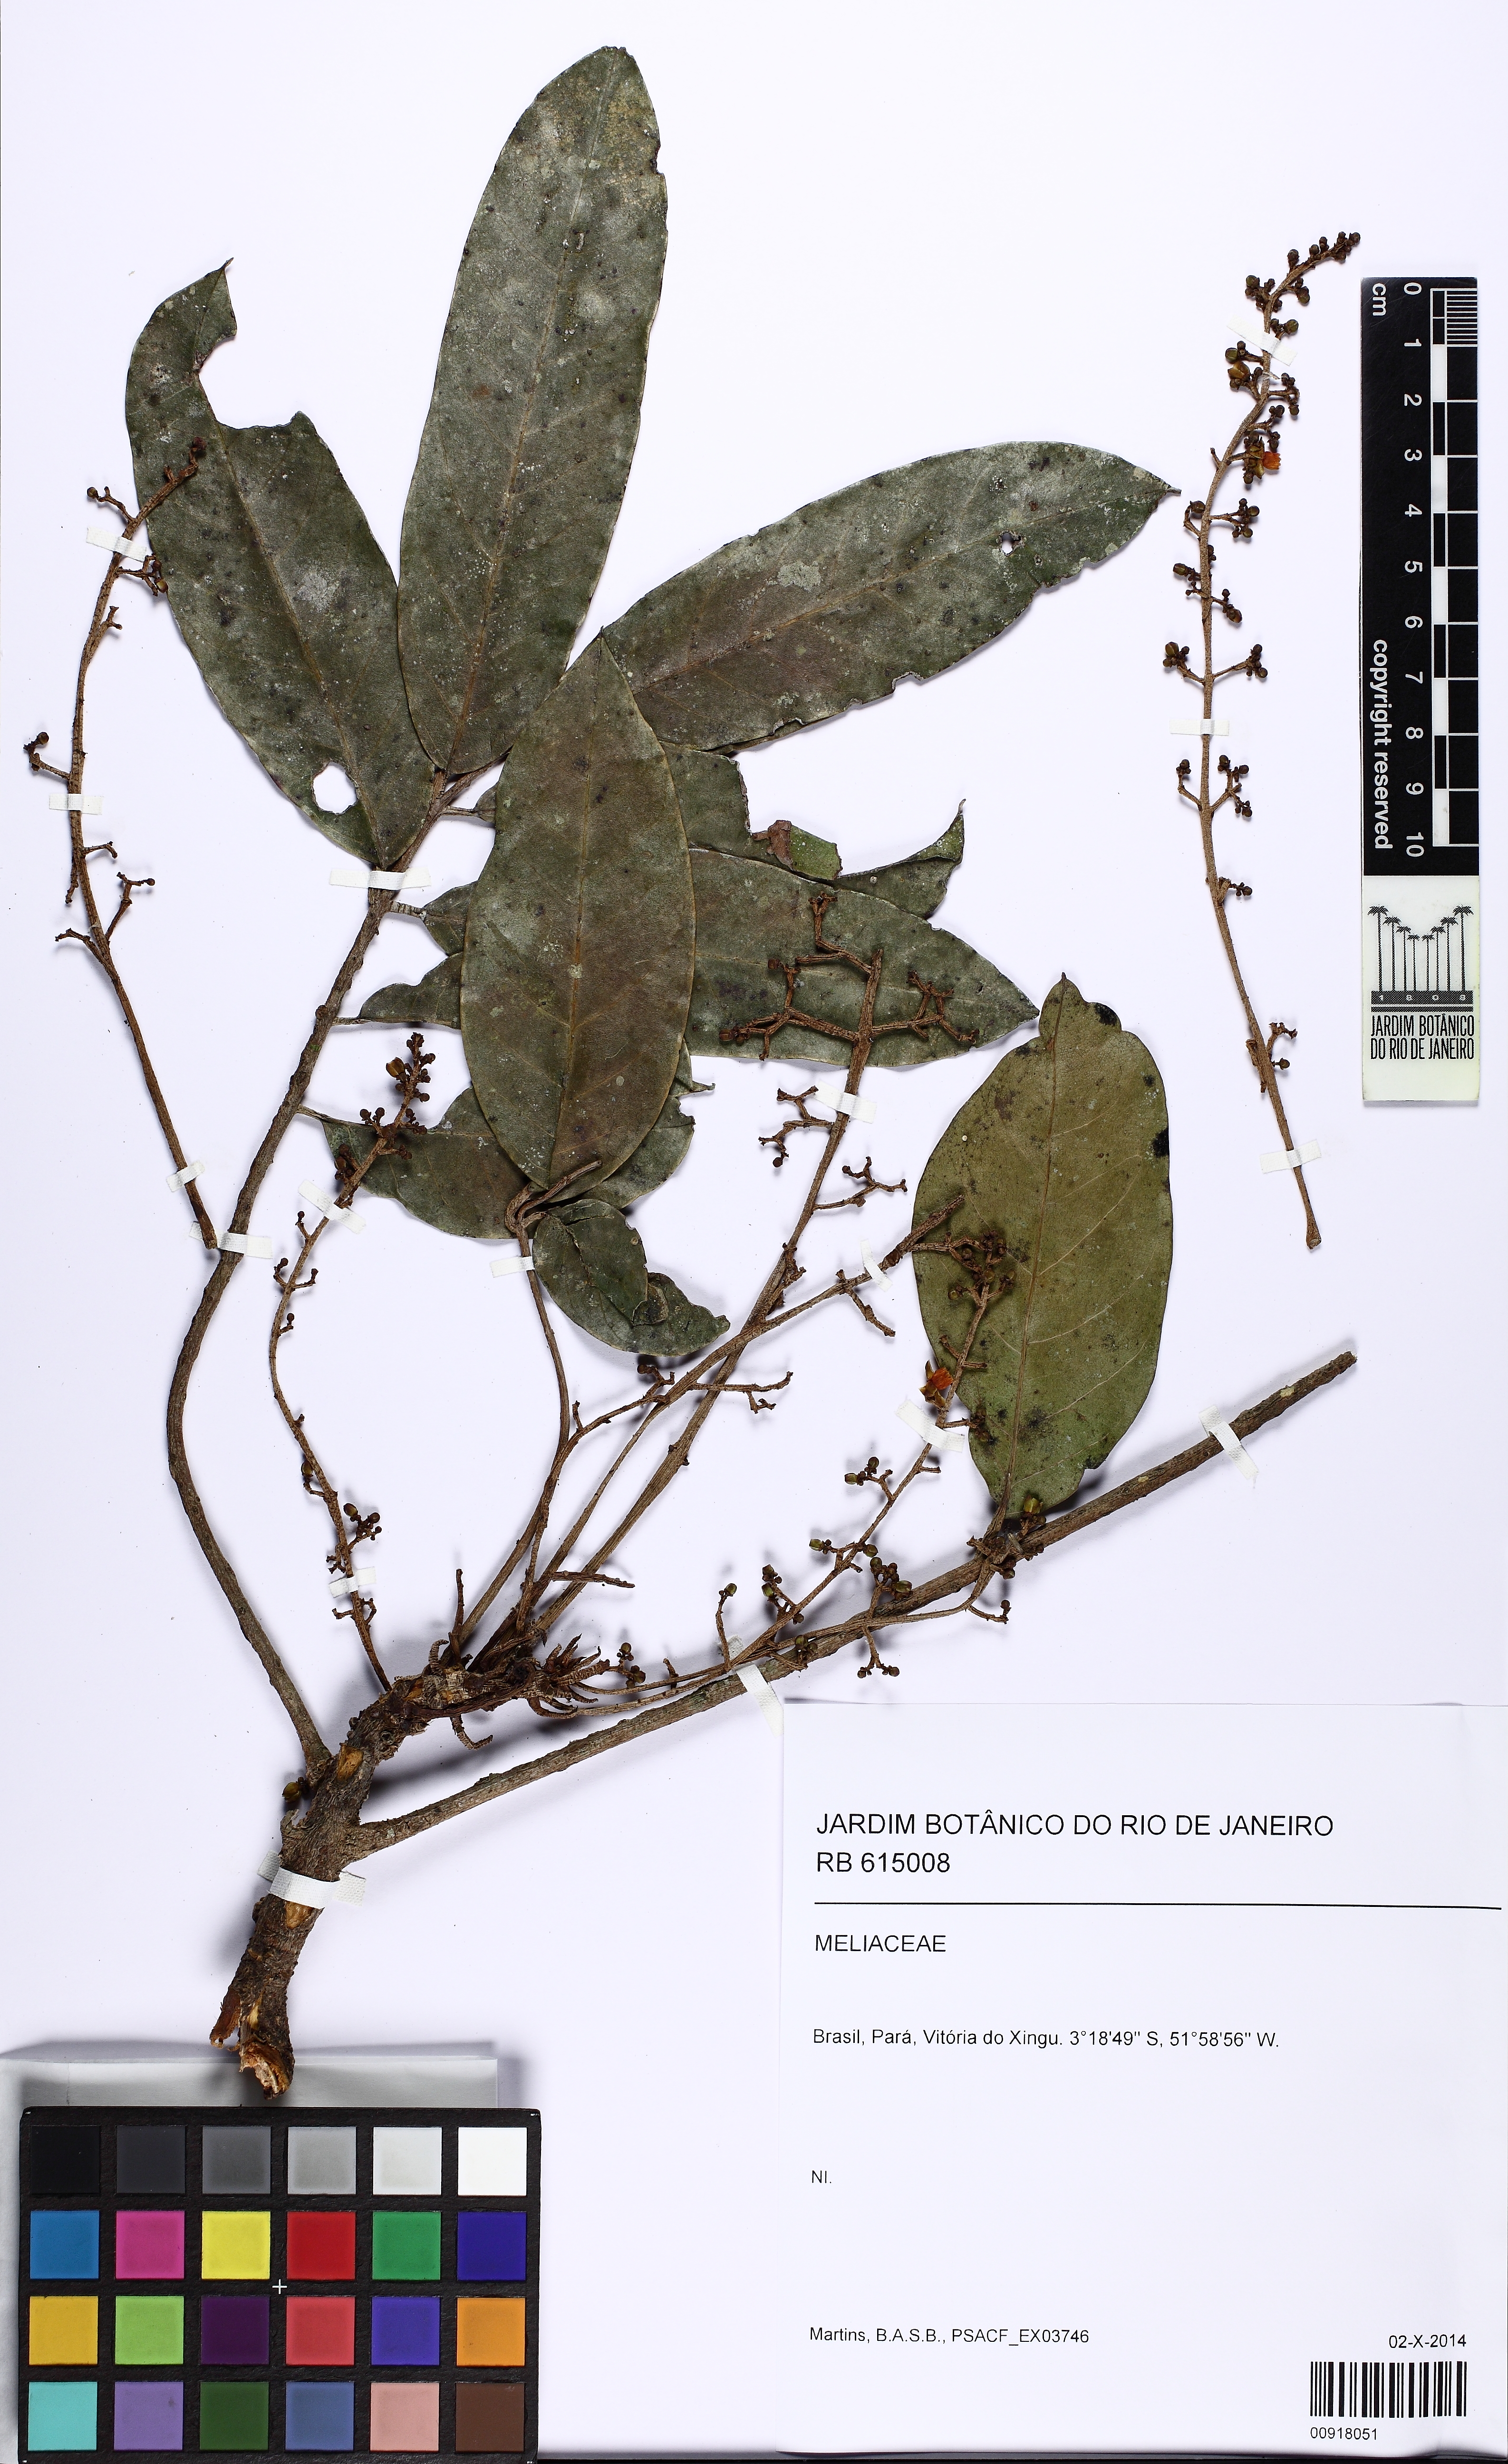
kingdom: Plantae
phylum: Tracheophyta
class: Magnoliopsida
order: Sapindales
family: Meliaceae
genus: Carapa
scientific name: Carapa
